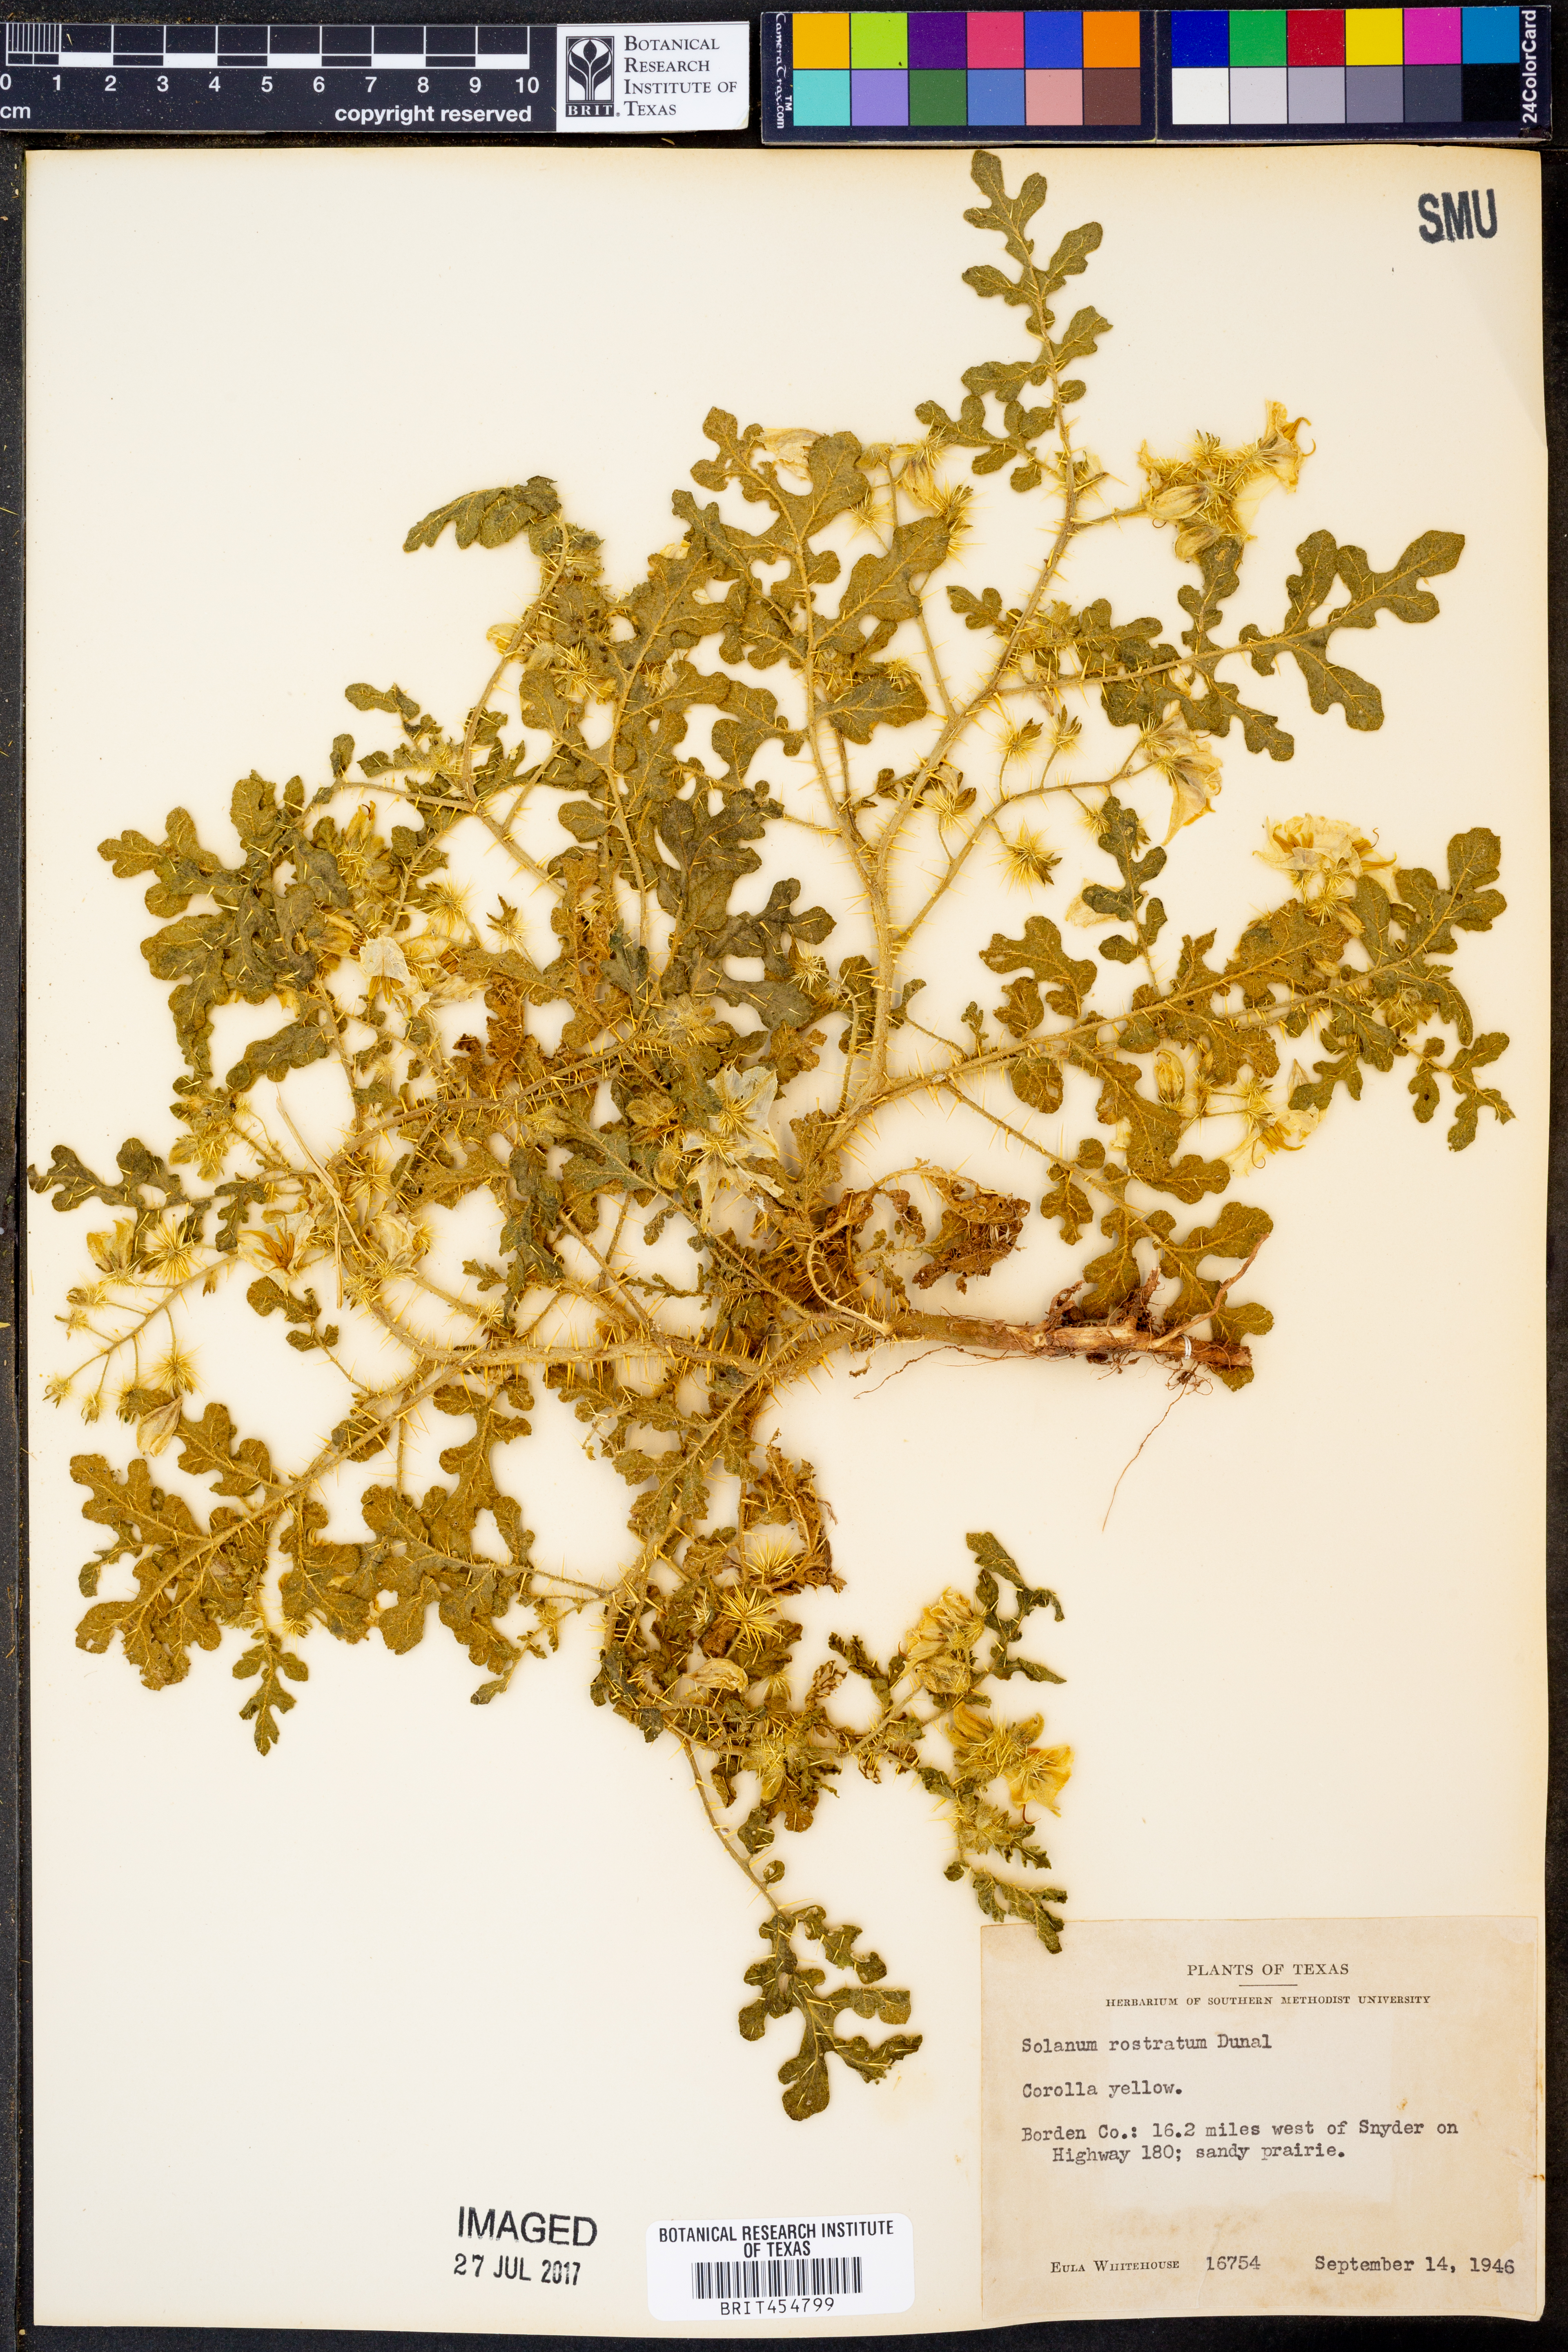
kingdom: Plantae
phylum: Tracheophyta
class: Magnoliopsida
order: Solanales
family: Solanaceae
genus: Solanum
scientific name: Solanum angustifolium
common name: Buffalobur nightshade
